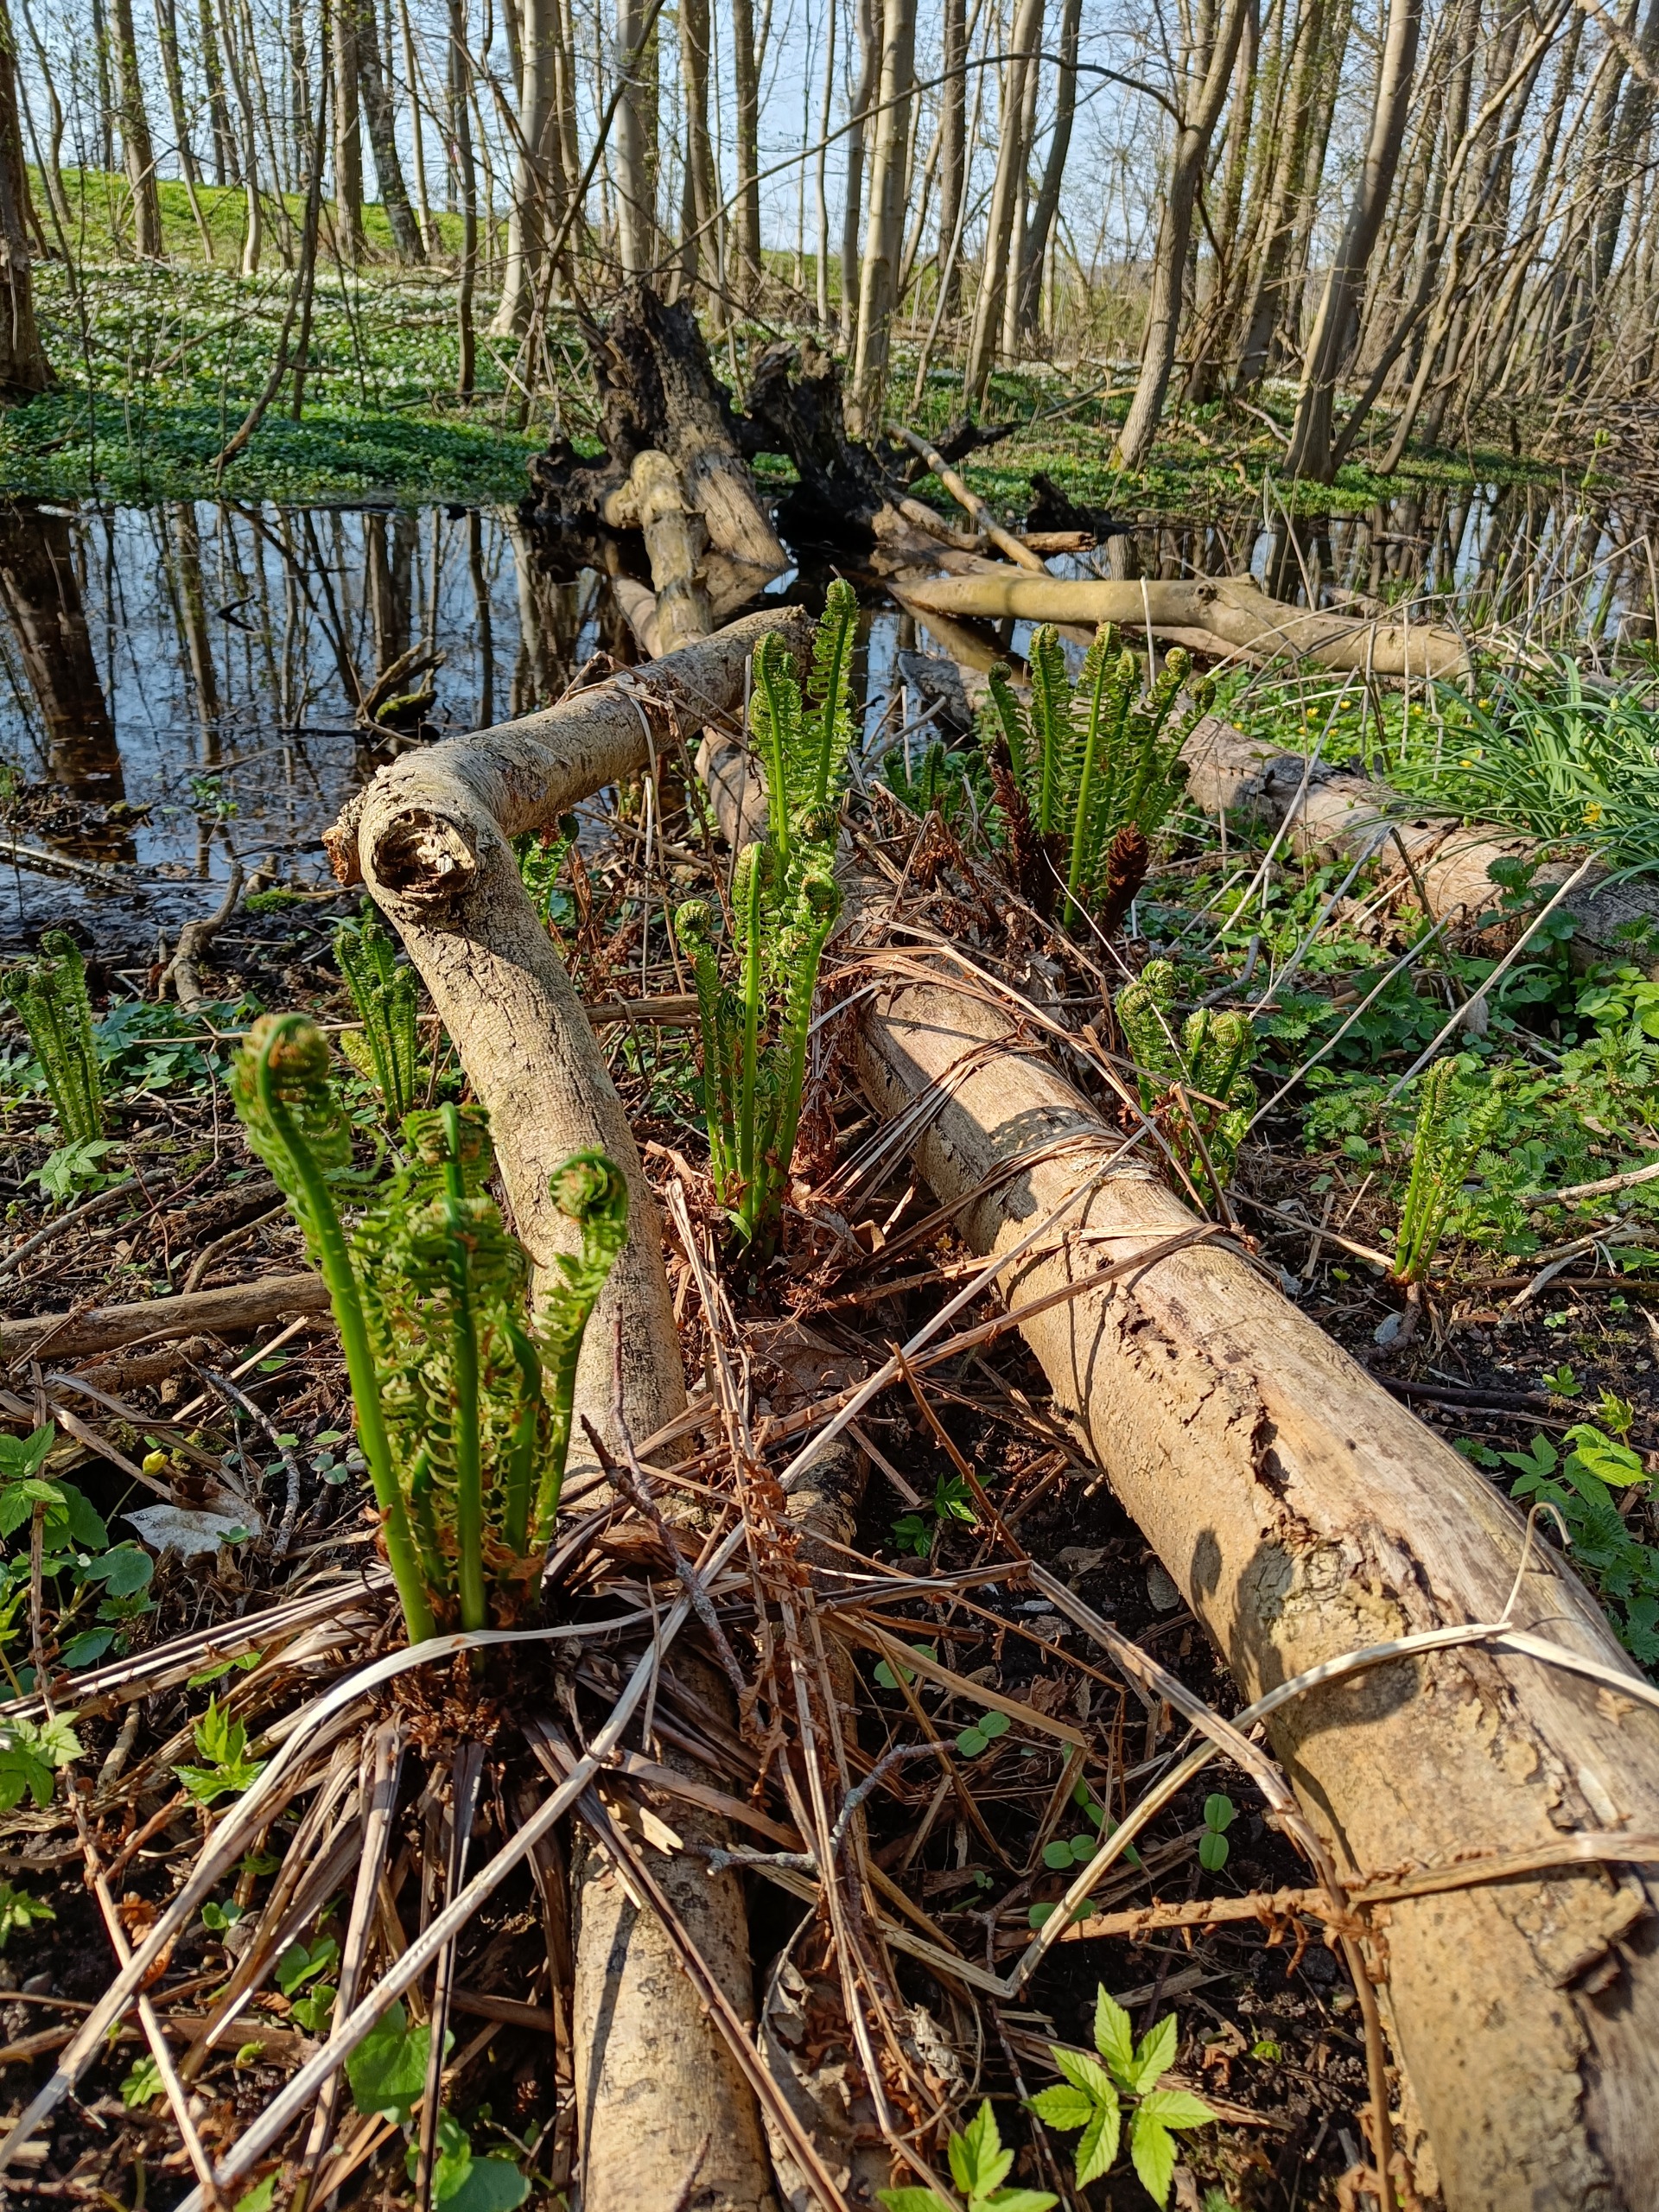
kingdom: Plantae
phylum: Tracheophyta
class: Polypodiopsida
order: Polypodiales
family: Onocleaceae
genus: Matteuccia
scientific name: Matteuccia struthiopteris
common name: Strudsvinge
